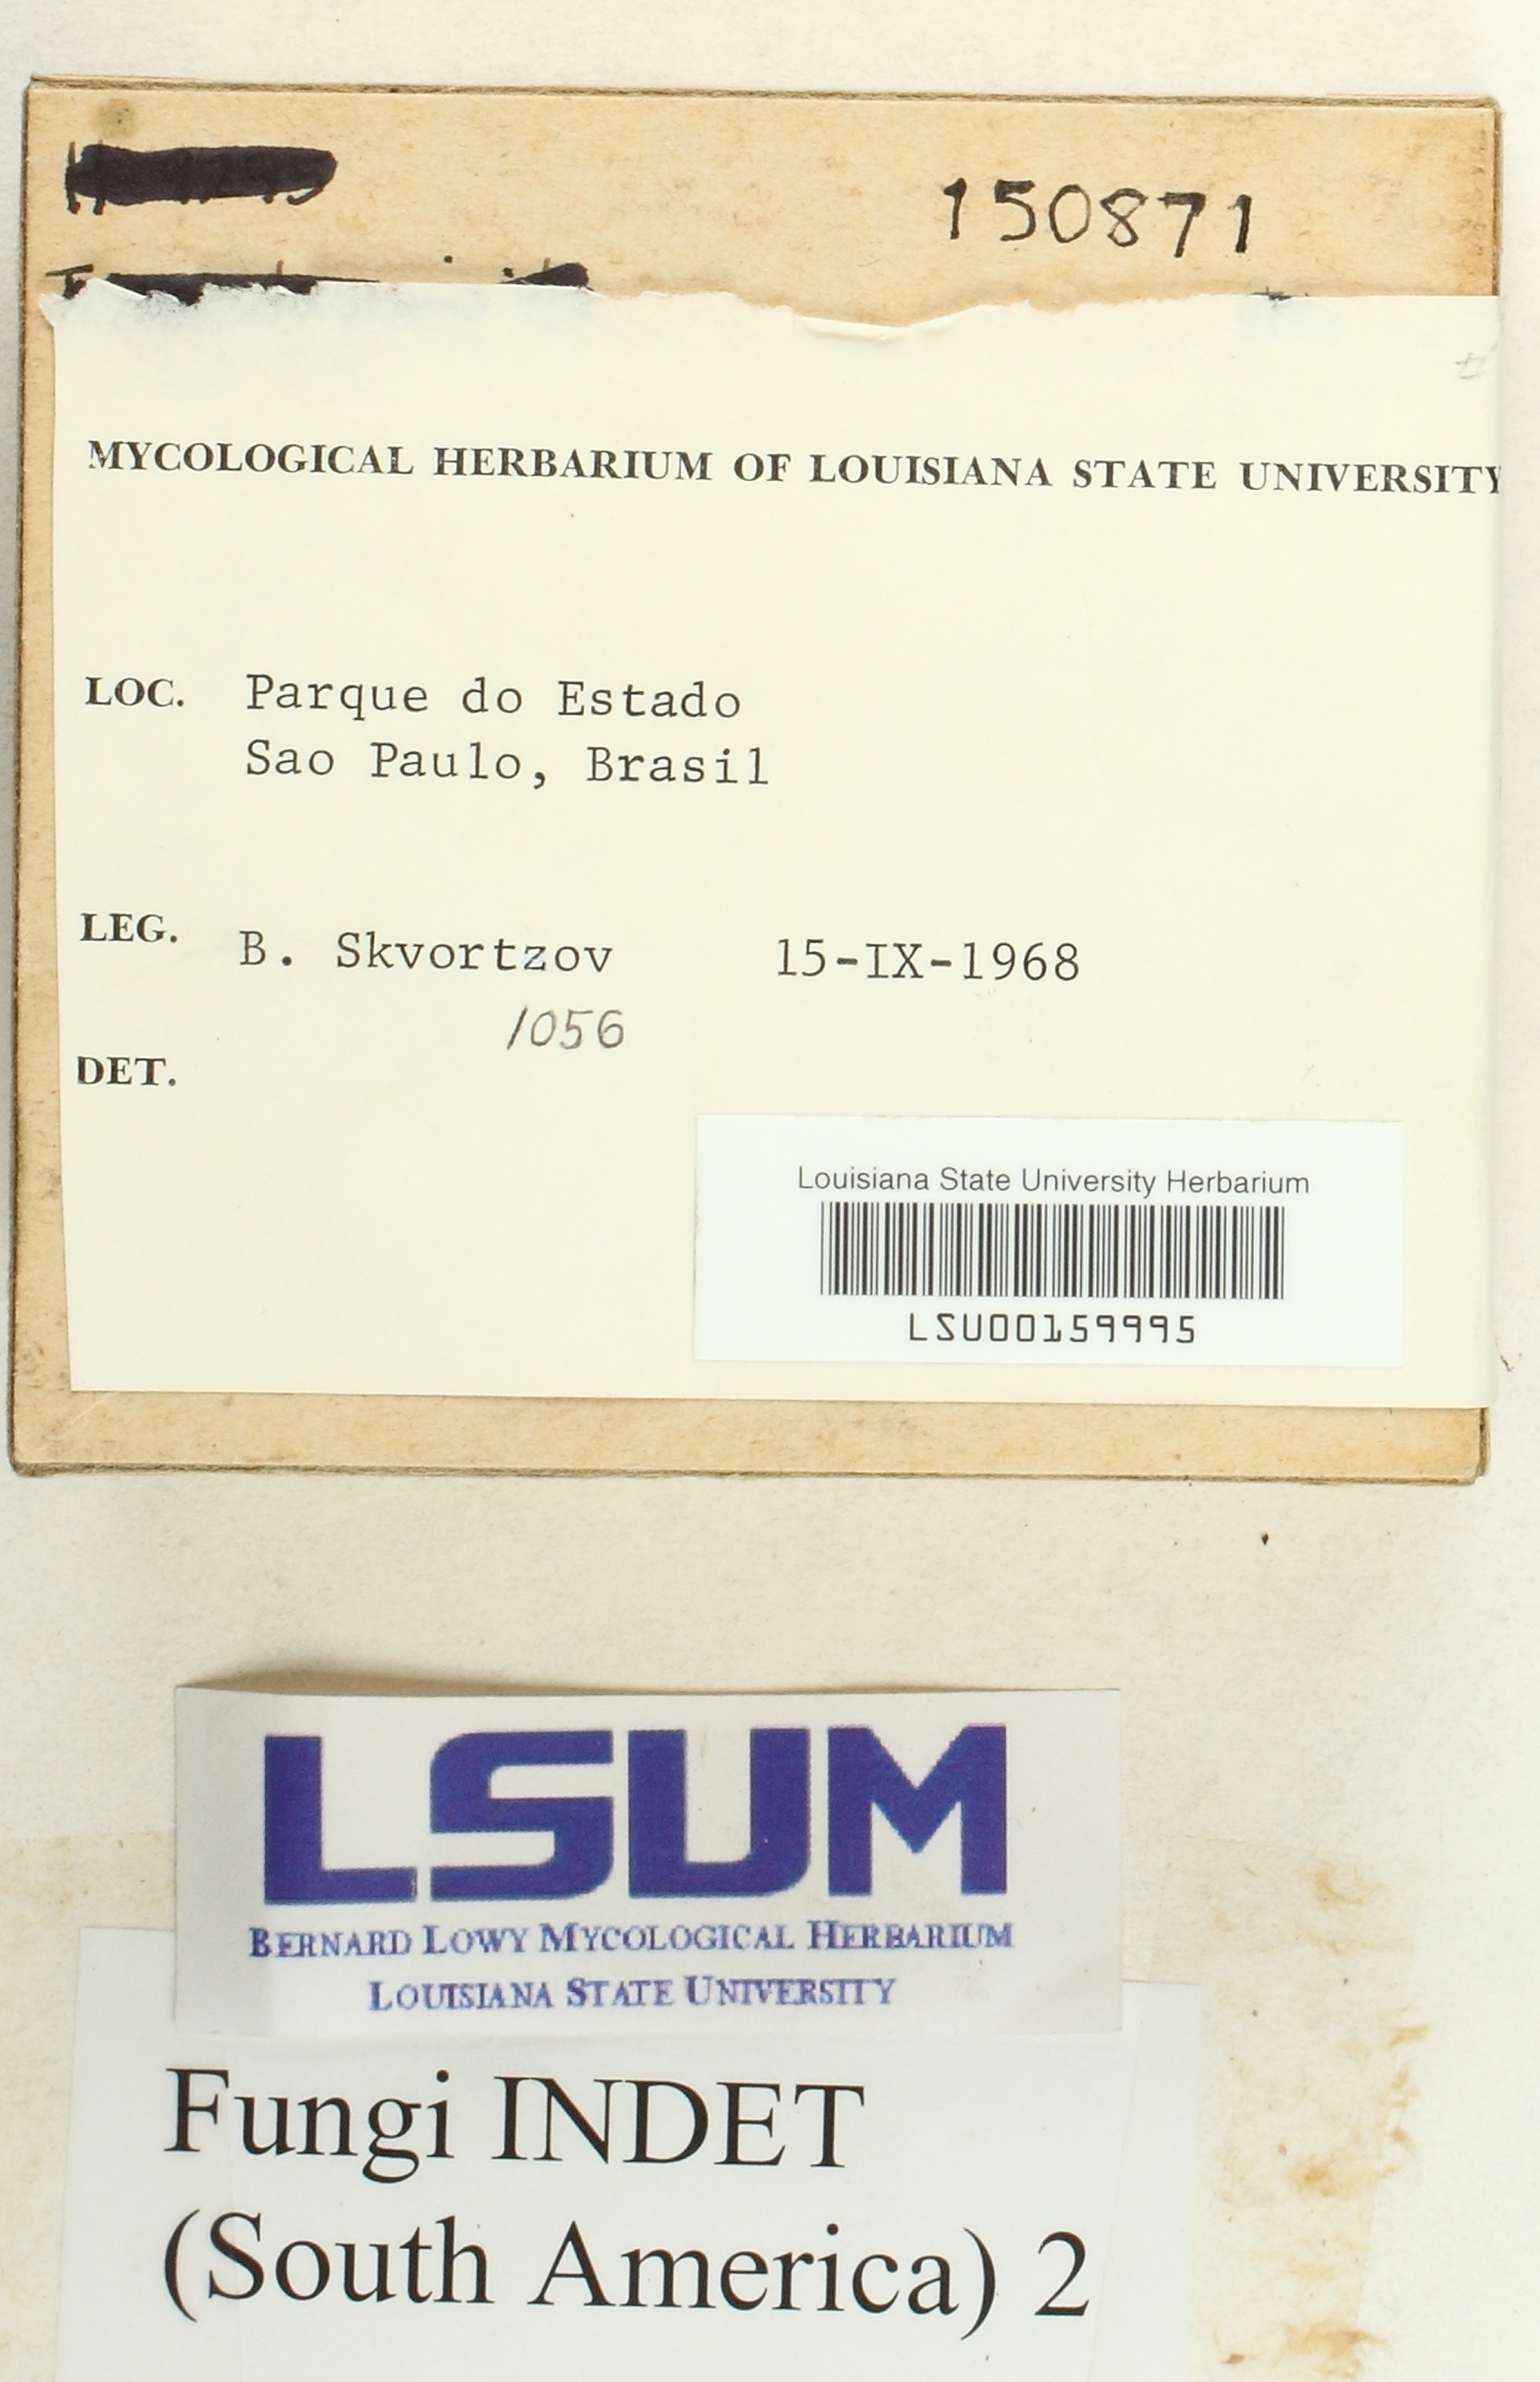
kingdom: Fungi
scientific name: Fungi
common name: Fungi
